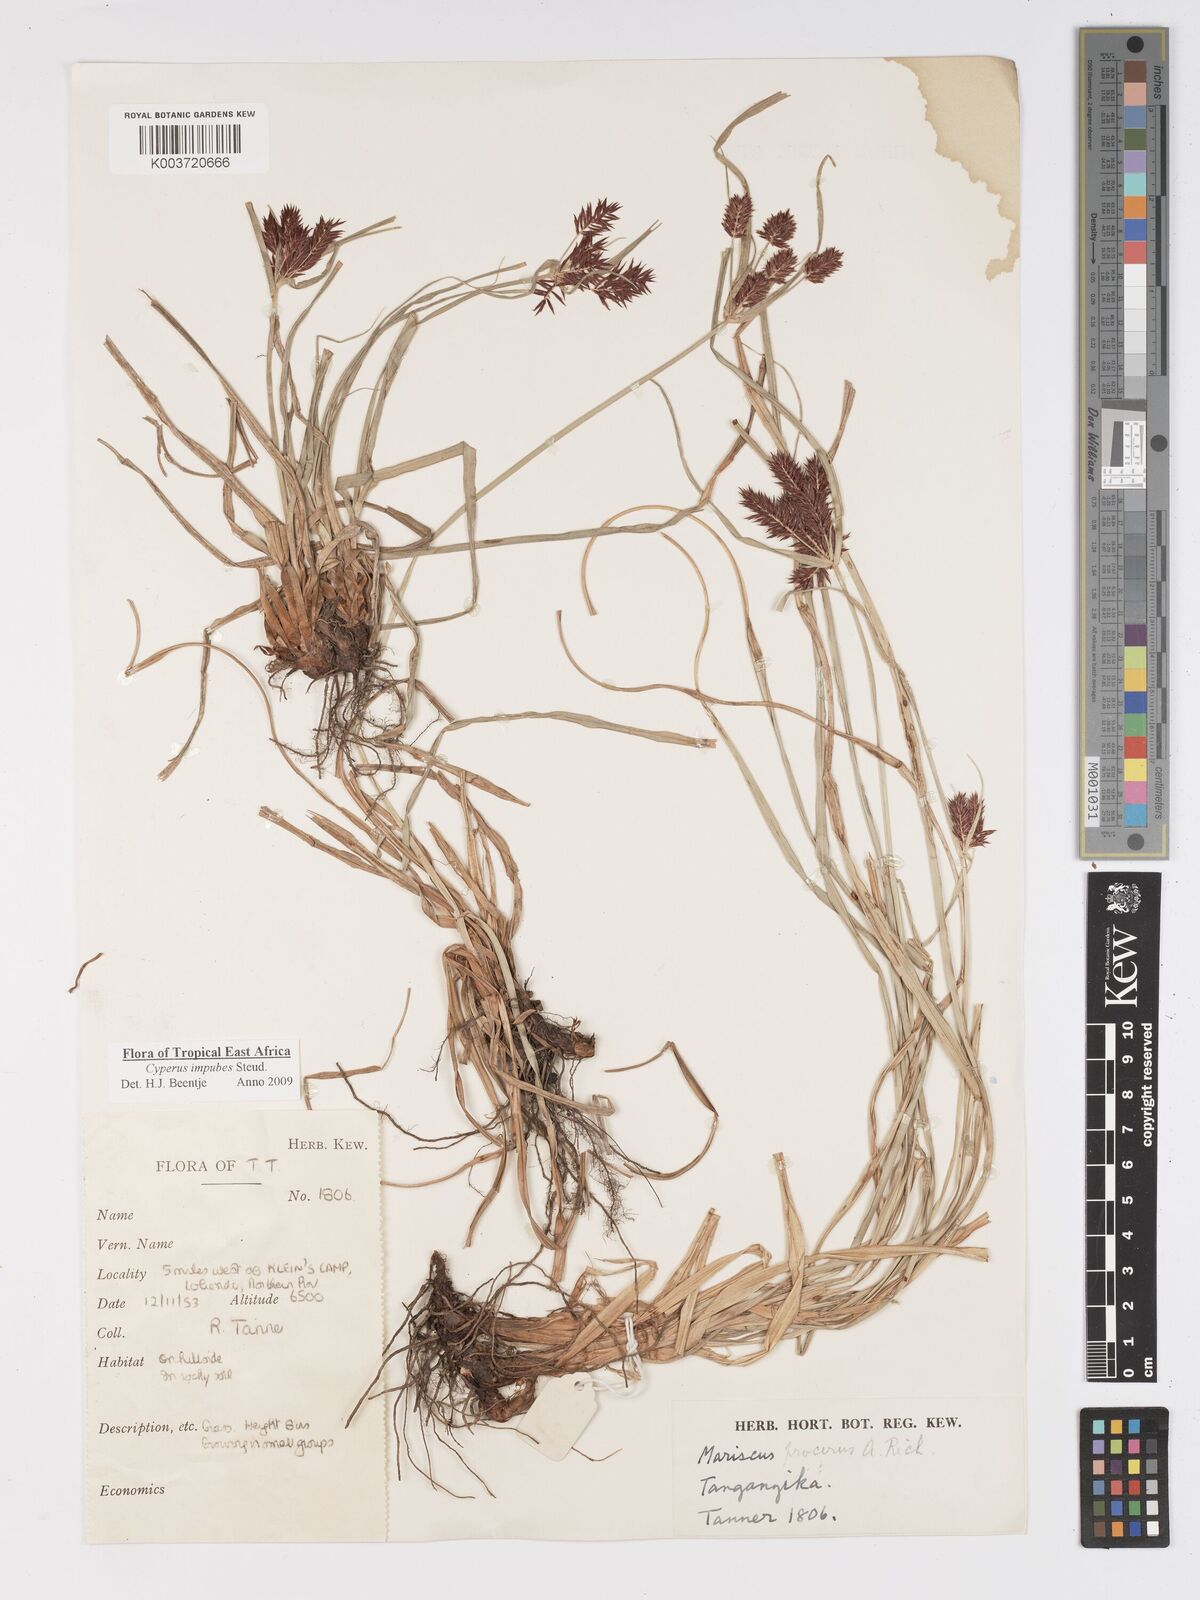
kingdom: Plantae
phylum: Tracheophyta
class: Liliopsida
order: Poales
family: Cyperaceae
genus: Cyperus
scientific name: Cyperus impubes
